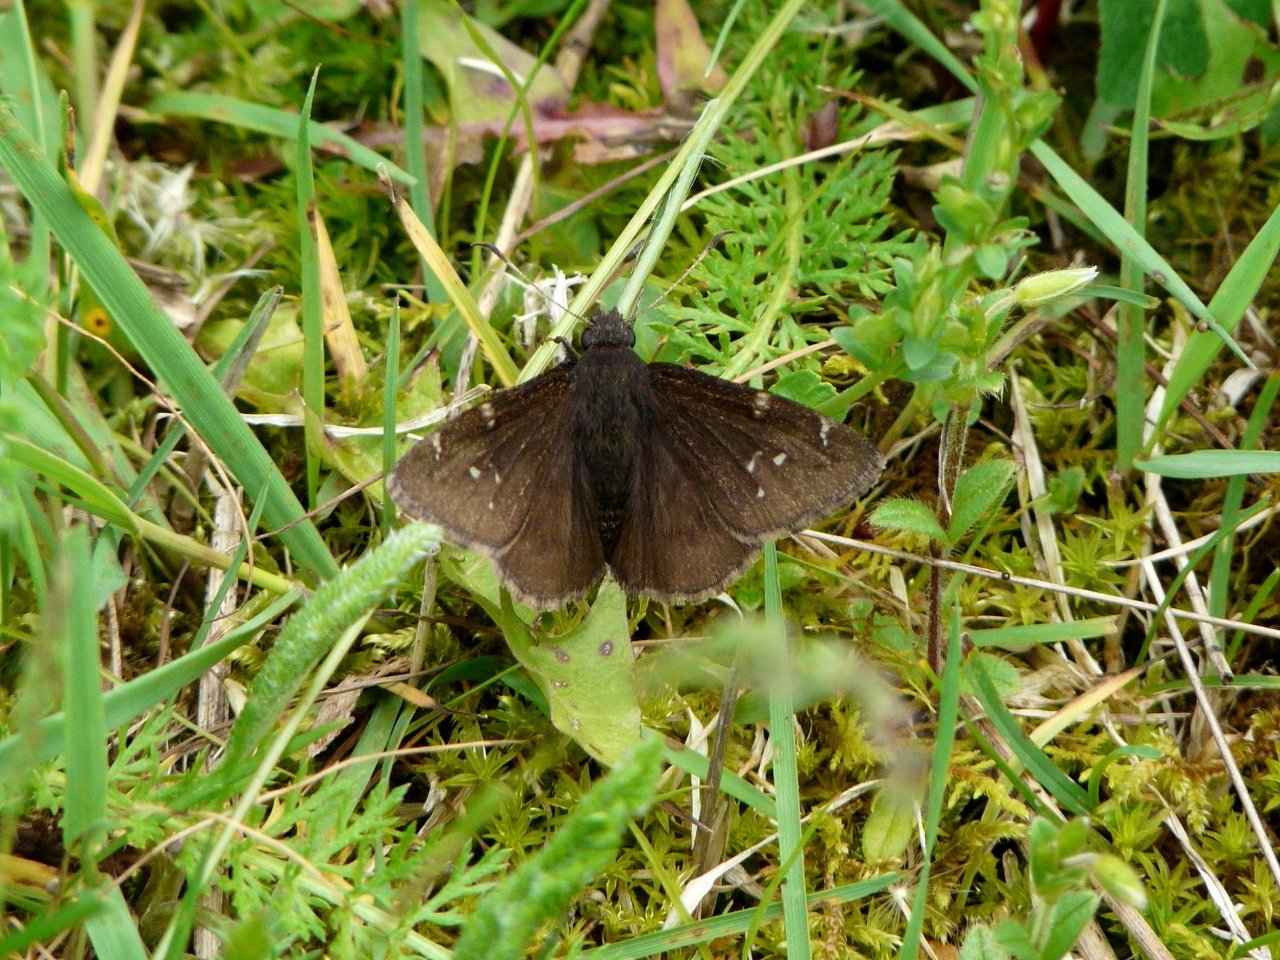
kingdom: Animalia
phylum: Arthropoda
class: Insecta
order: Lepidoptera
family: Hesperiidae
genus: Autochton
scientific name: Autochton
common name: Northern Cloudywing
